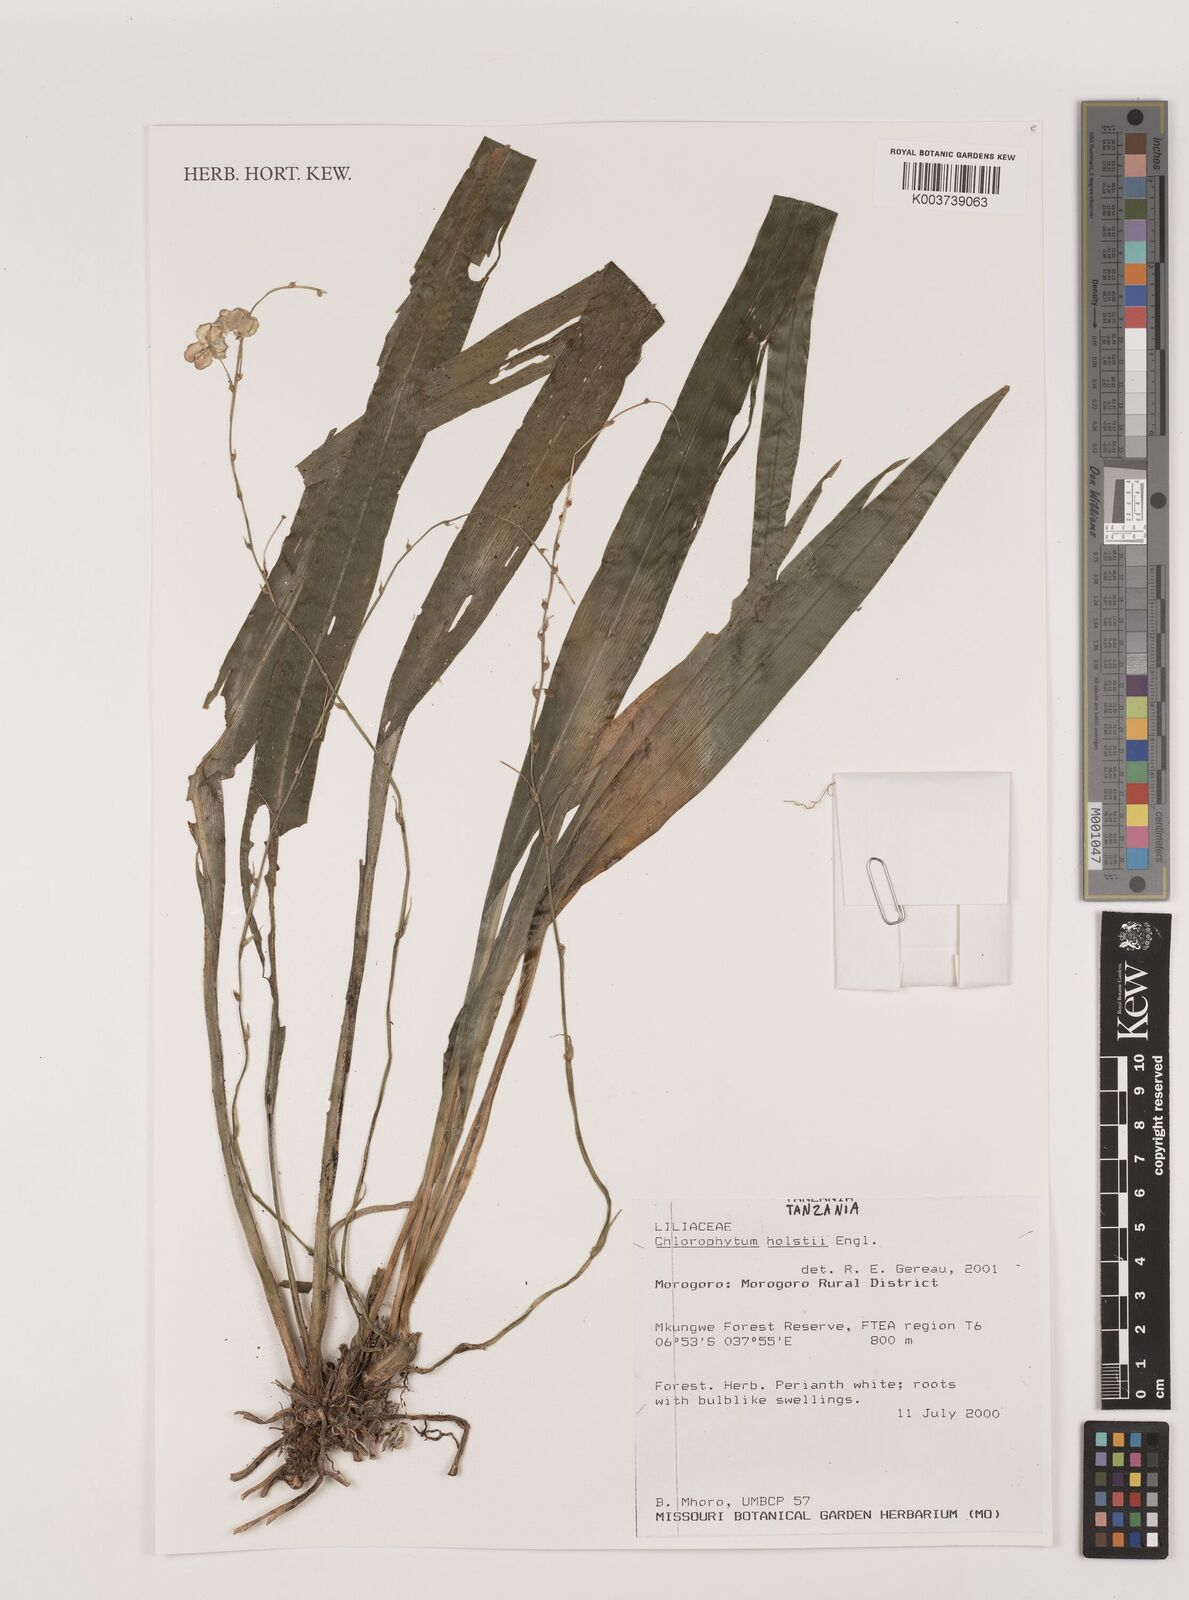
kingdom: Plantae
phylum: Tracheophyta
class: Liliopsida
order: Asparagales
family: Asparagaceae
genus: Chlorophytum
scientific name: Chlorophytum holstii
